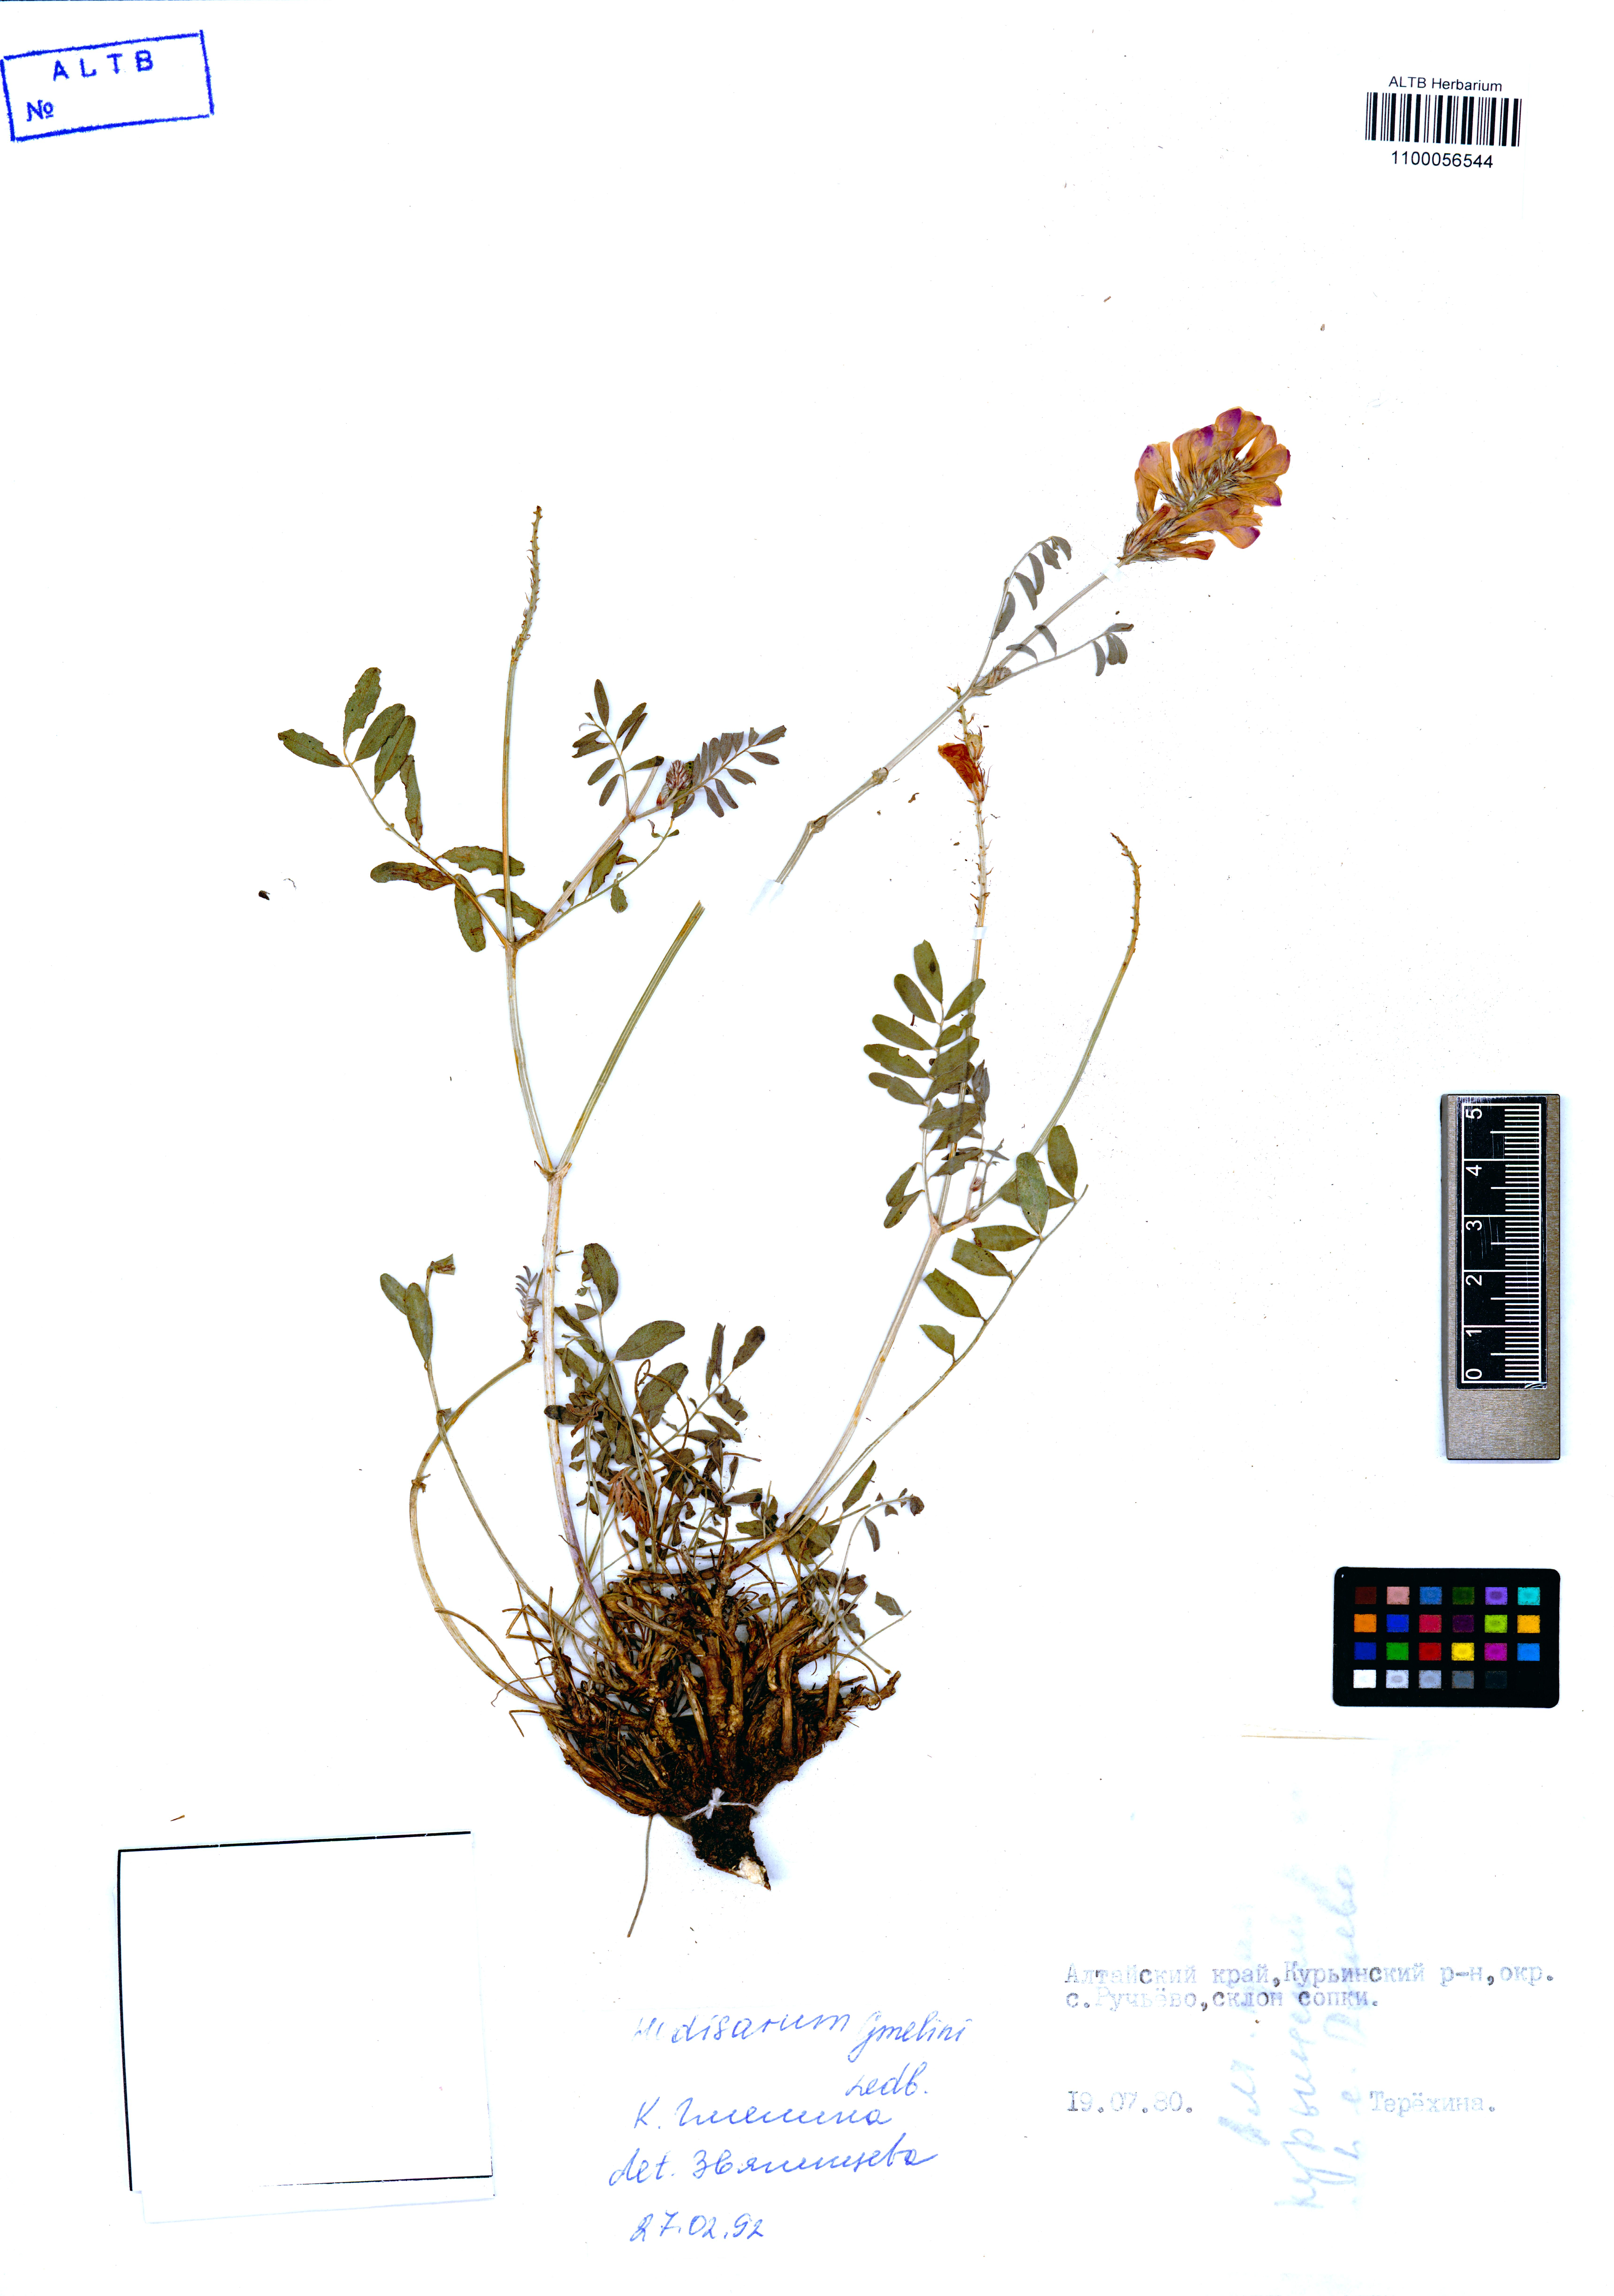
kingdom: Plantae
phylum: Tracheophyta
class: Magnoliopsida
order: Fabales
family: Fabaceae
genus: Hedysarum
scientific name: Hedysarum gmelinii
